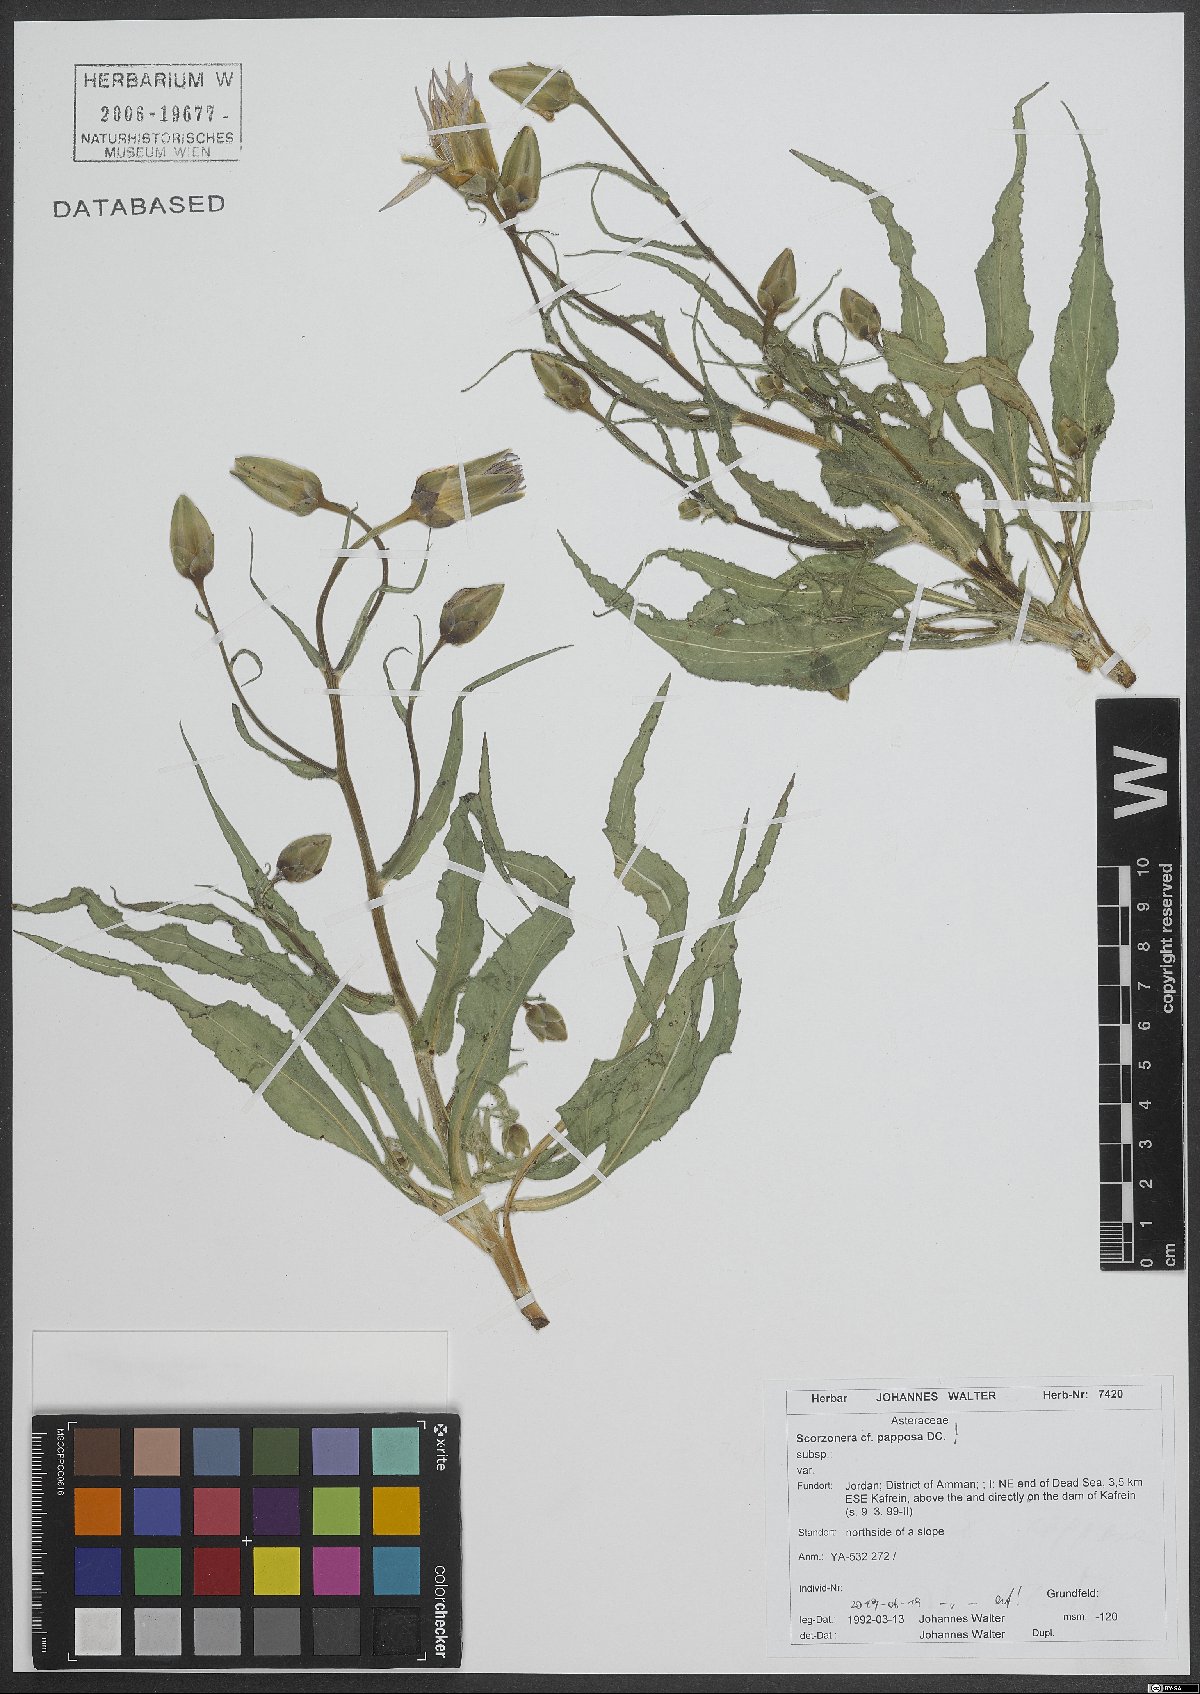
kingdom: Plantae
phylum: Tracheophyta
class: Magnoliopsida
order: Asterales
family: Asteraceae
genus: Pseudopodospermum
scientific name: Pseudopodospermum papposum
